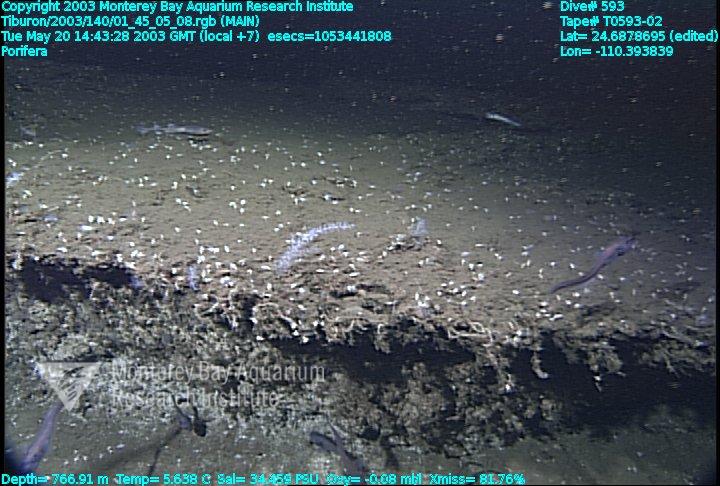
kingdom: Animalia
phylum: Porifera
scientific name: Porifera
